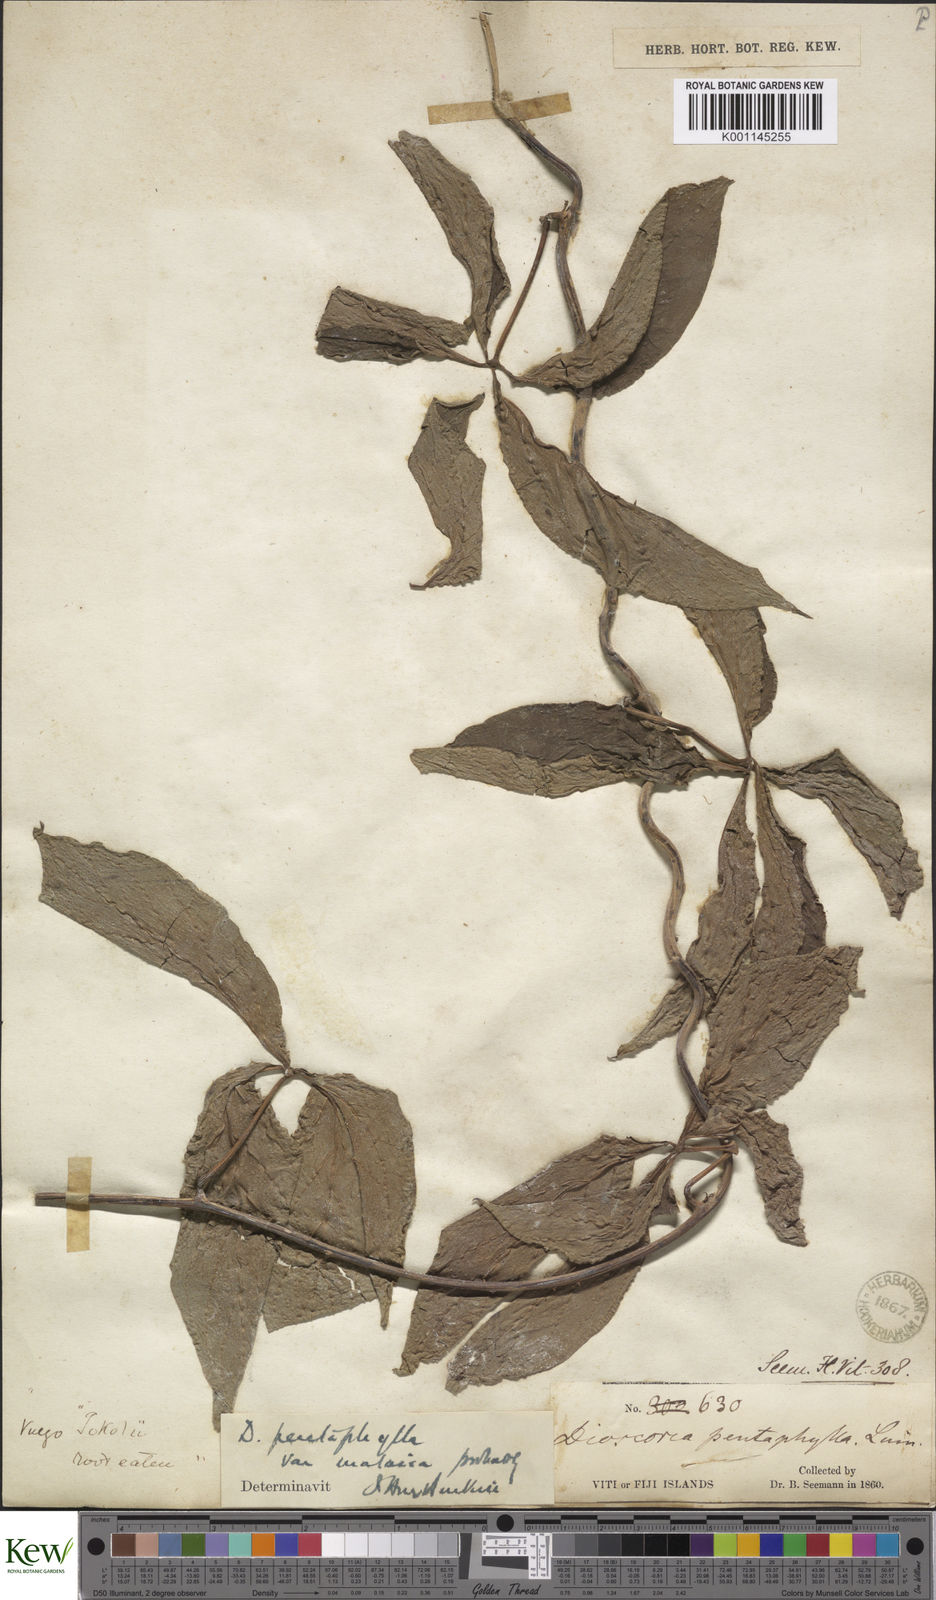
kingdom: Plantae
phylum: Tracheophyta
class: Liliopsida
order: Dioscoreales
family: Dioscoreaceae
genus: Dioscorea
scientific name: Dioscorea pentaphylla
